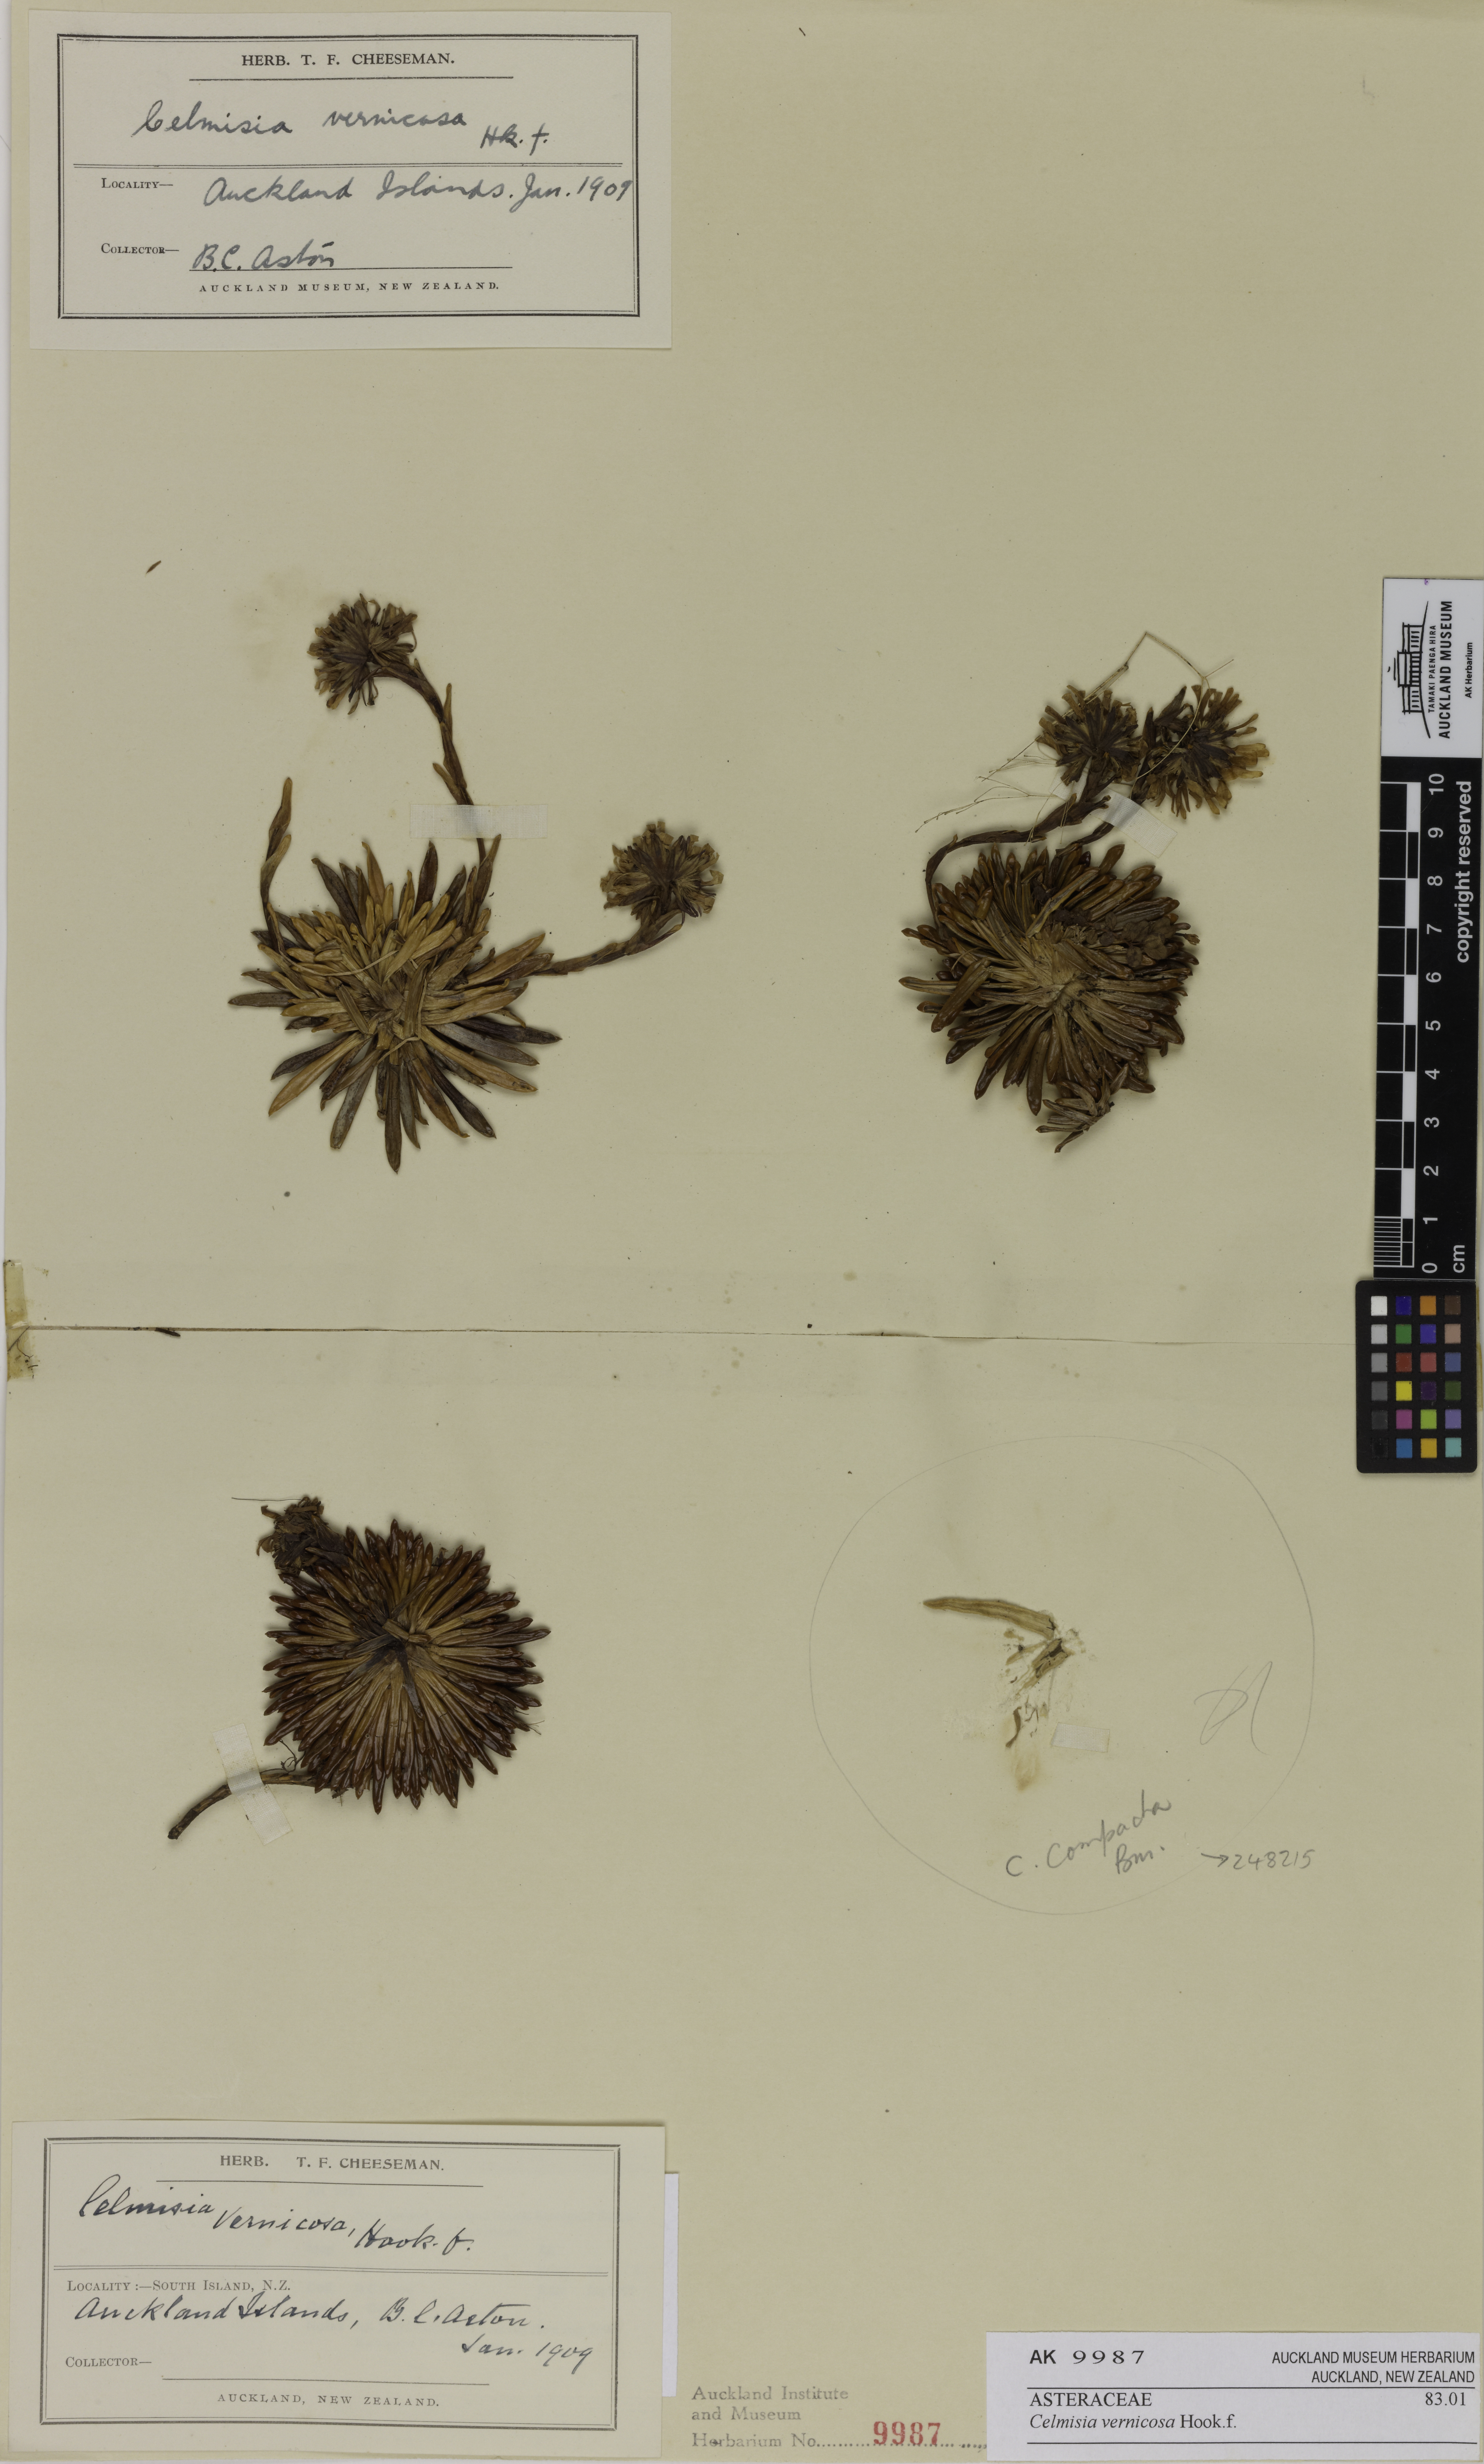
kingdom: Plantae
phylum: Tracheophyta
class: Magnoliopsida
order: Asterales
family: Asteraceae
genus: Damnamenia
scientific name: Damnamenia vernicosa
